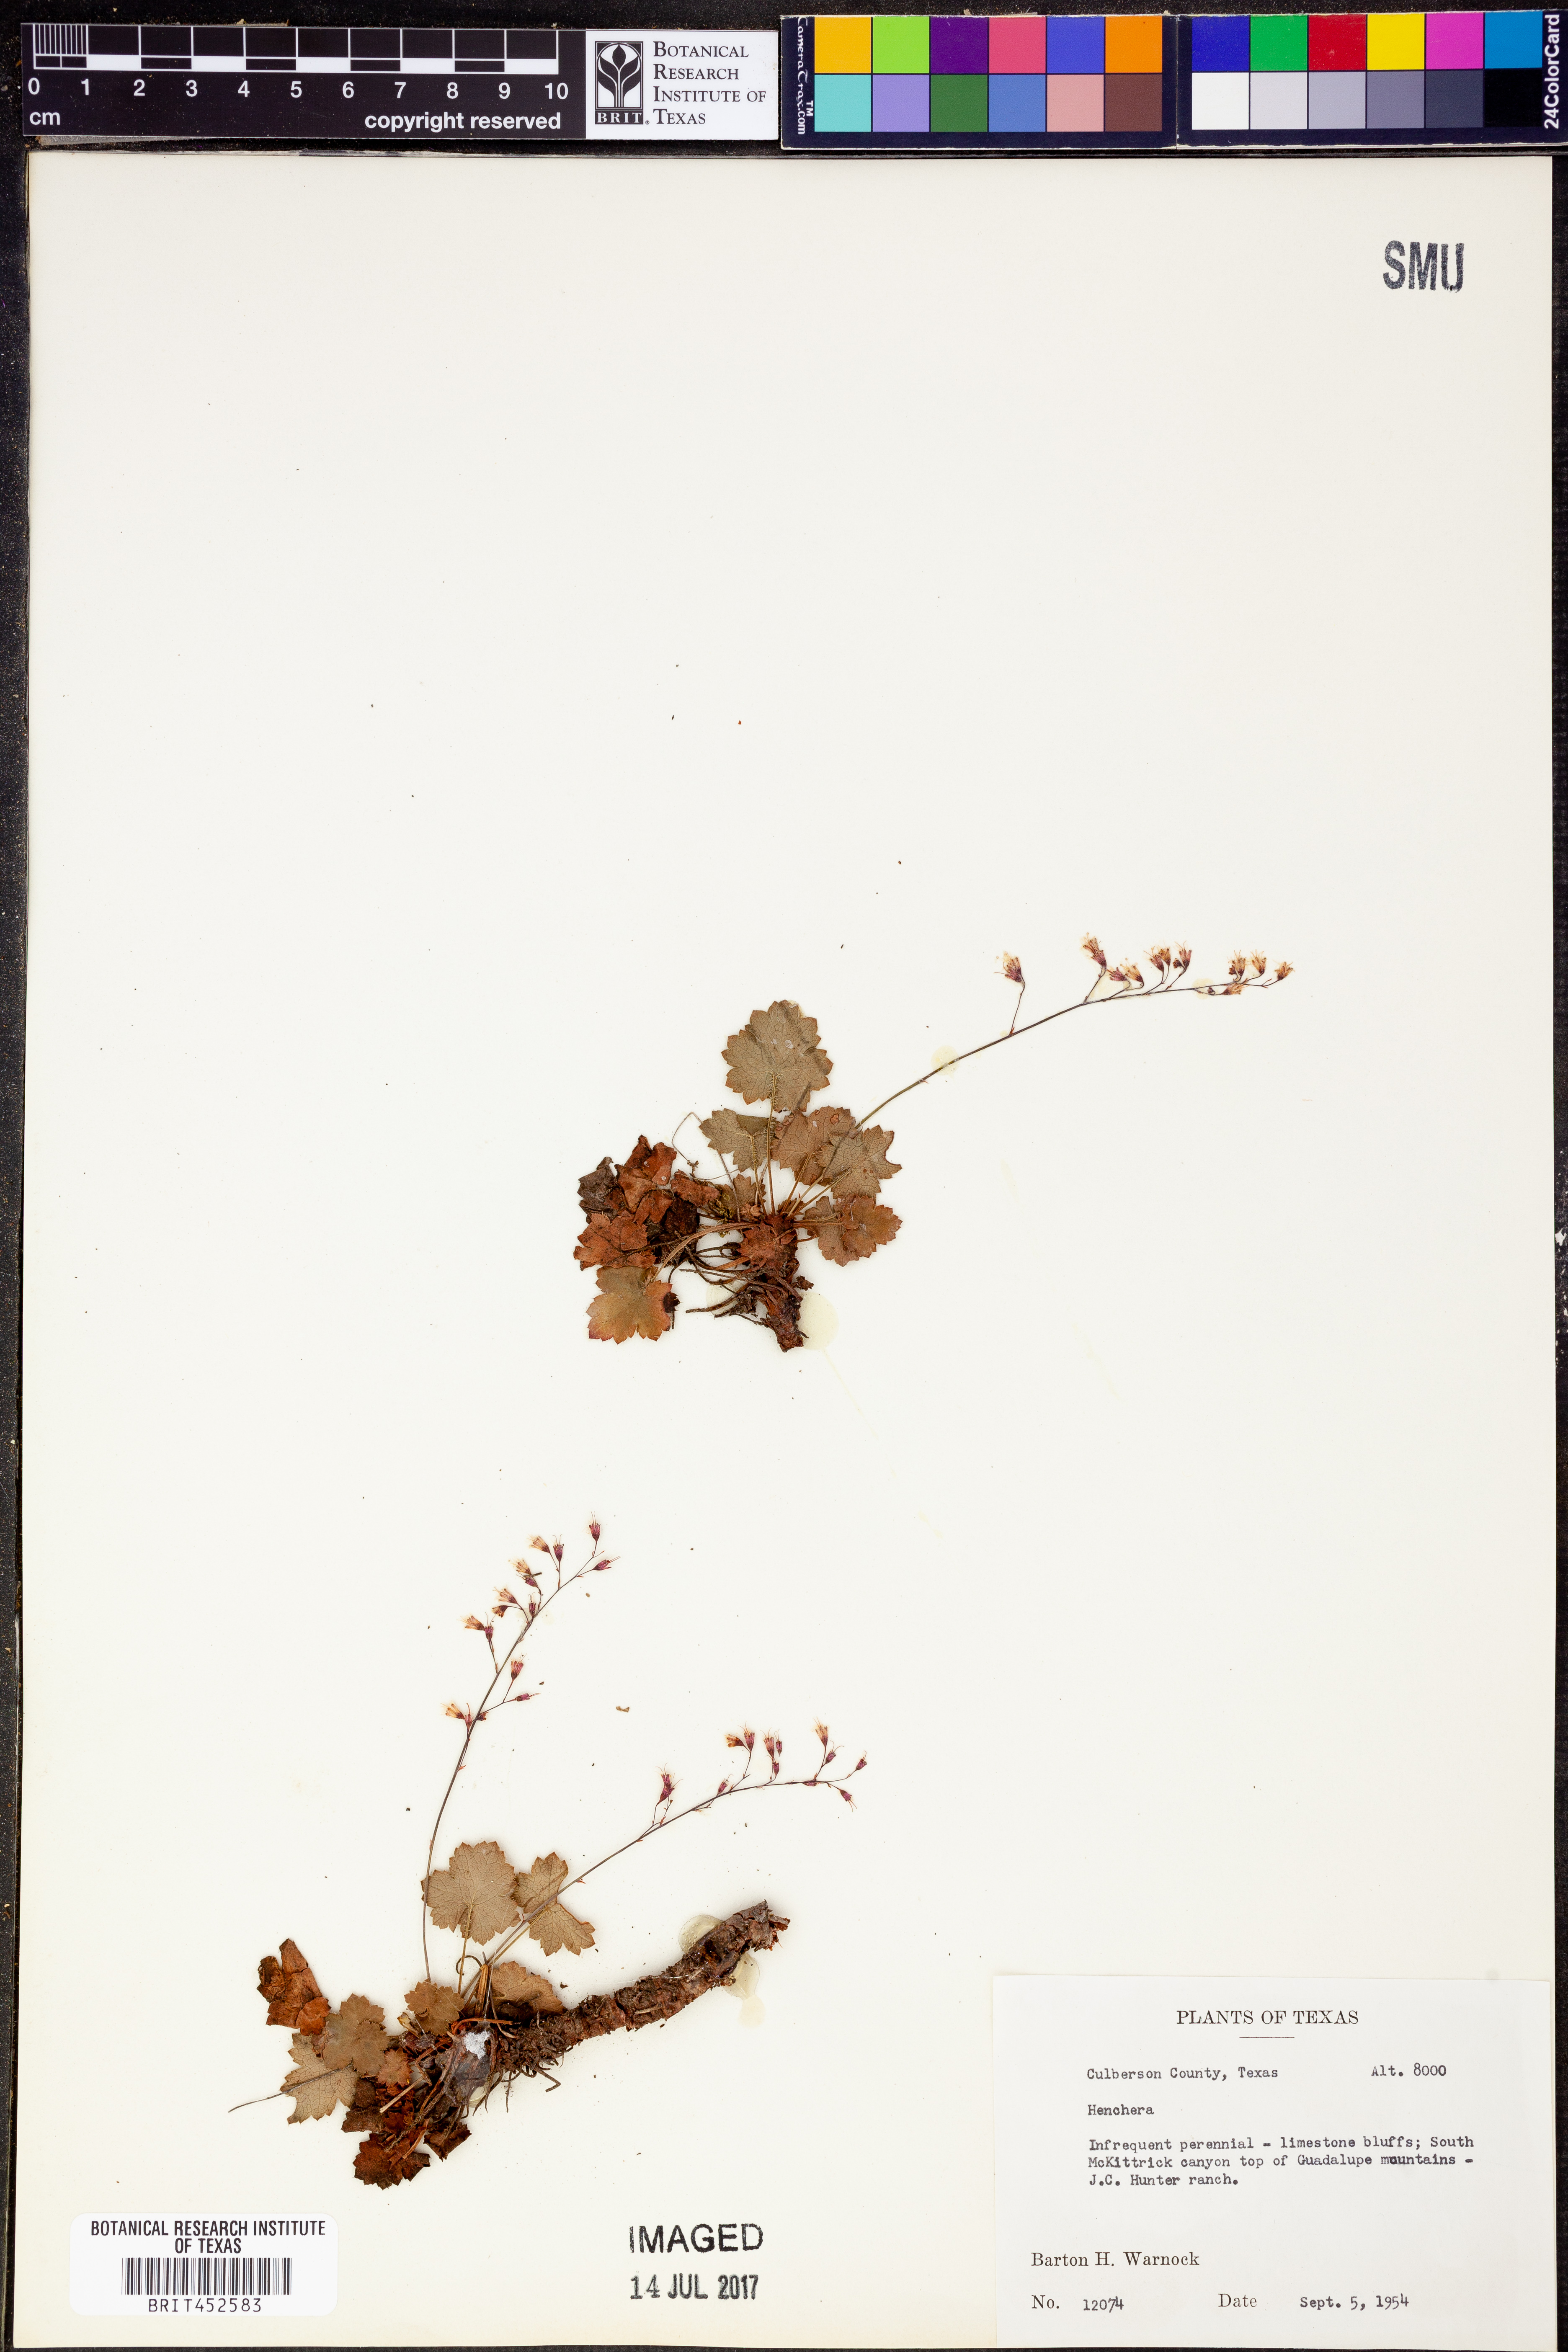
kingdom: Plantae
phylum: Tracheophyta
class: Magnoliopsida
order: Saxifragales
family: Saxifragaceae
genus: Heuchera
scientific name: Heuchera
